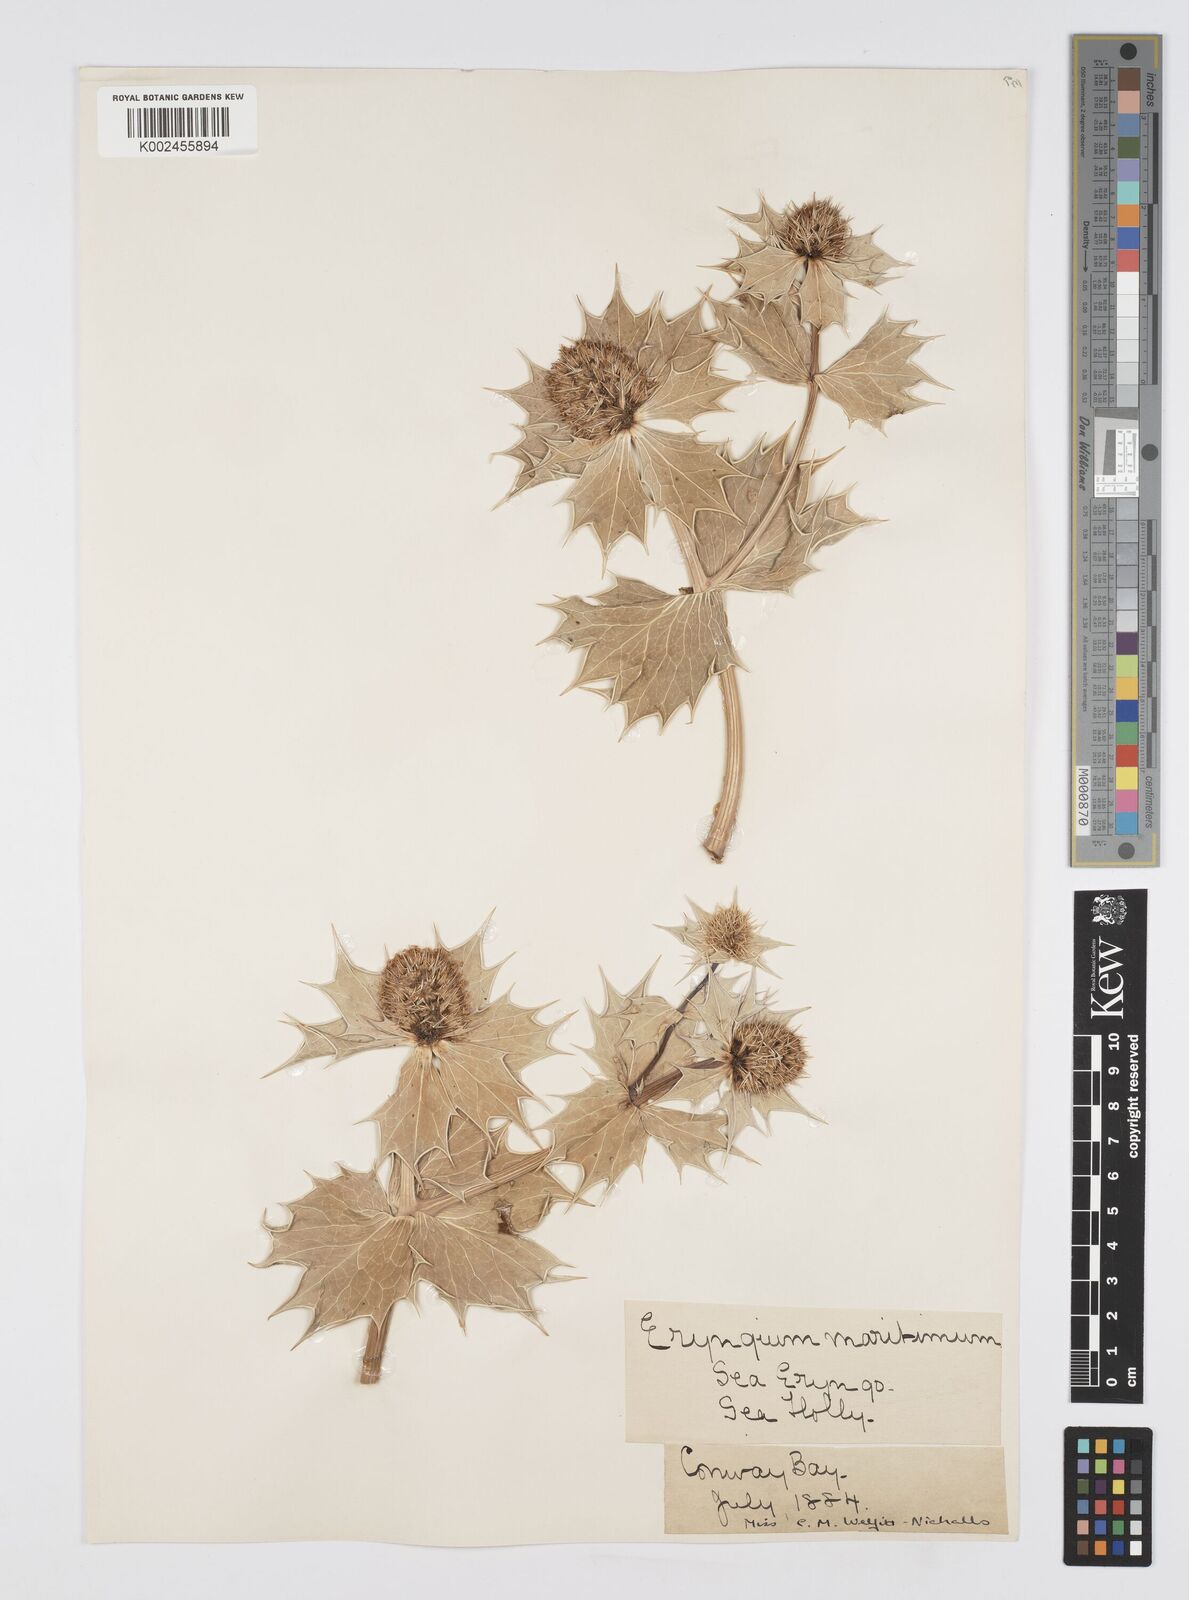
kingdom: Plantae
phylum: Tracheophyta
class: Magnoliopsida
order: Apiales
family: Apiaceae
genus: Eryngium
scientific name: Eryngium maritimum
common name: Sea-holly
